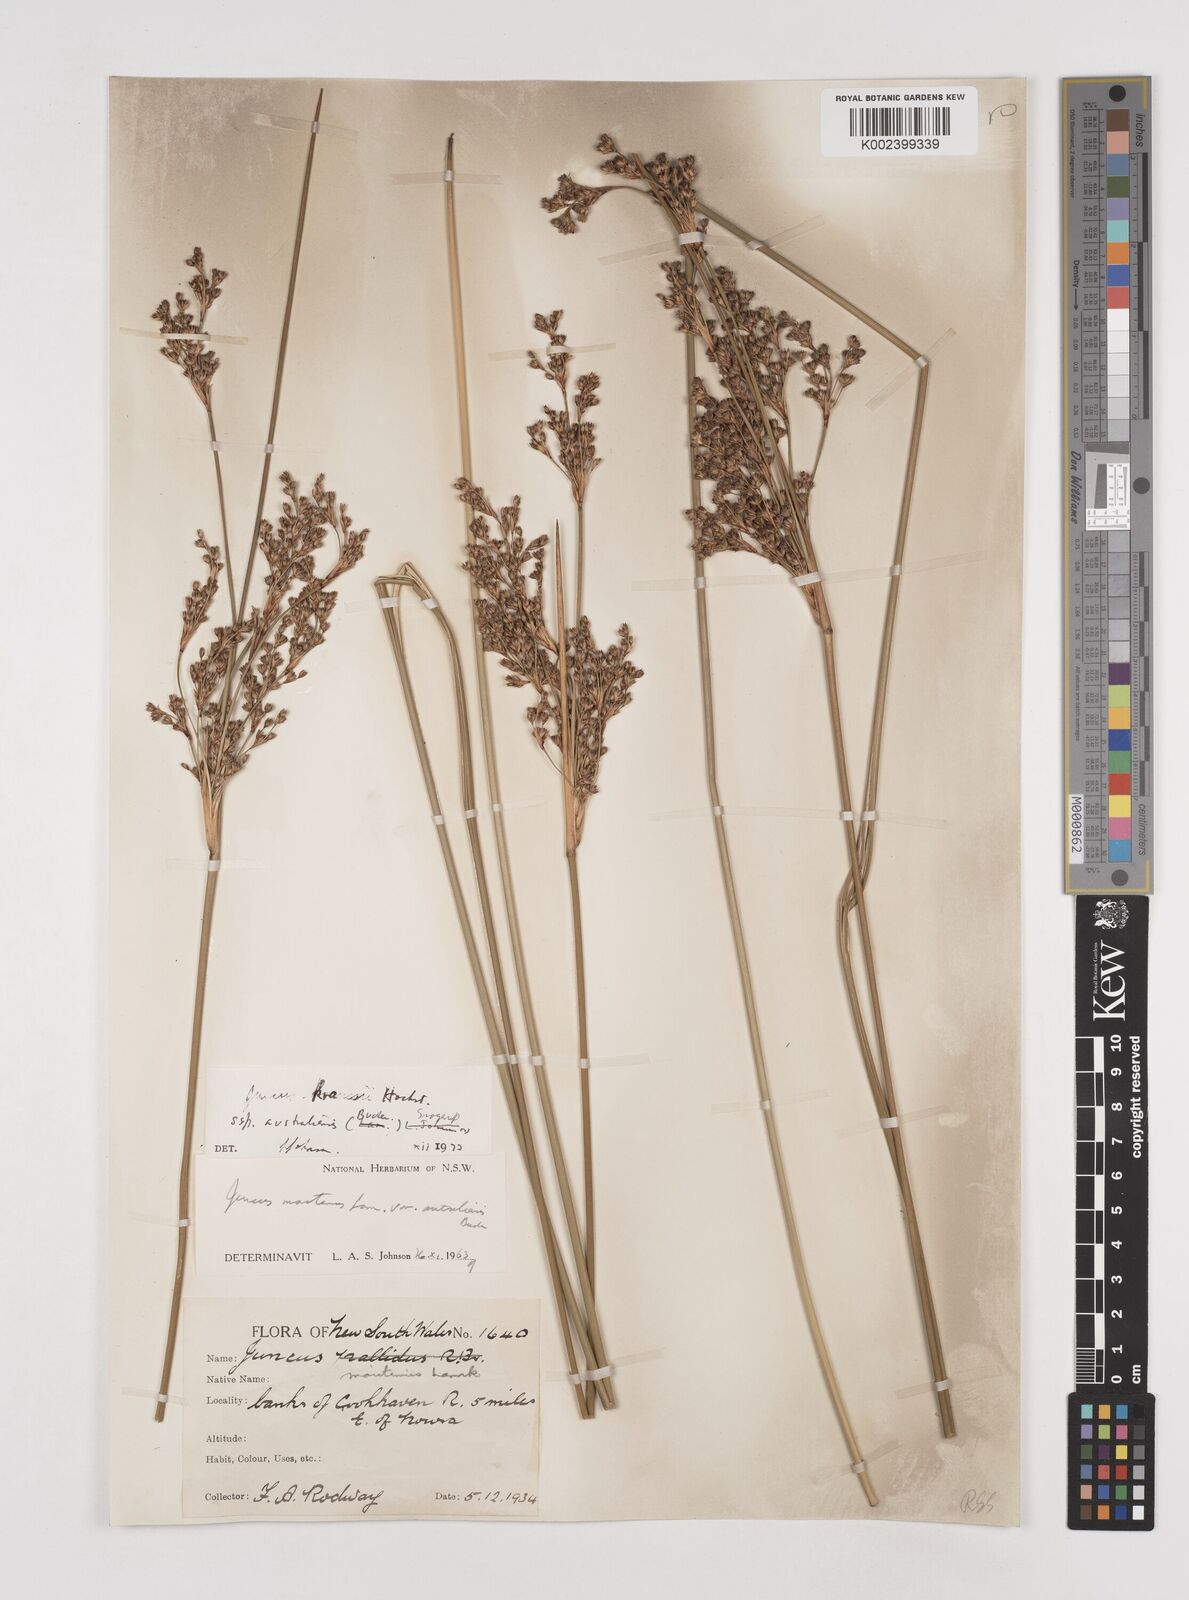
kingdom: Plantae
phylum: Tracheophyta
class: Liliopsida
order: Poales
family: Juncaceae
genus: Juncus
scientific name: Juncus kraussii
